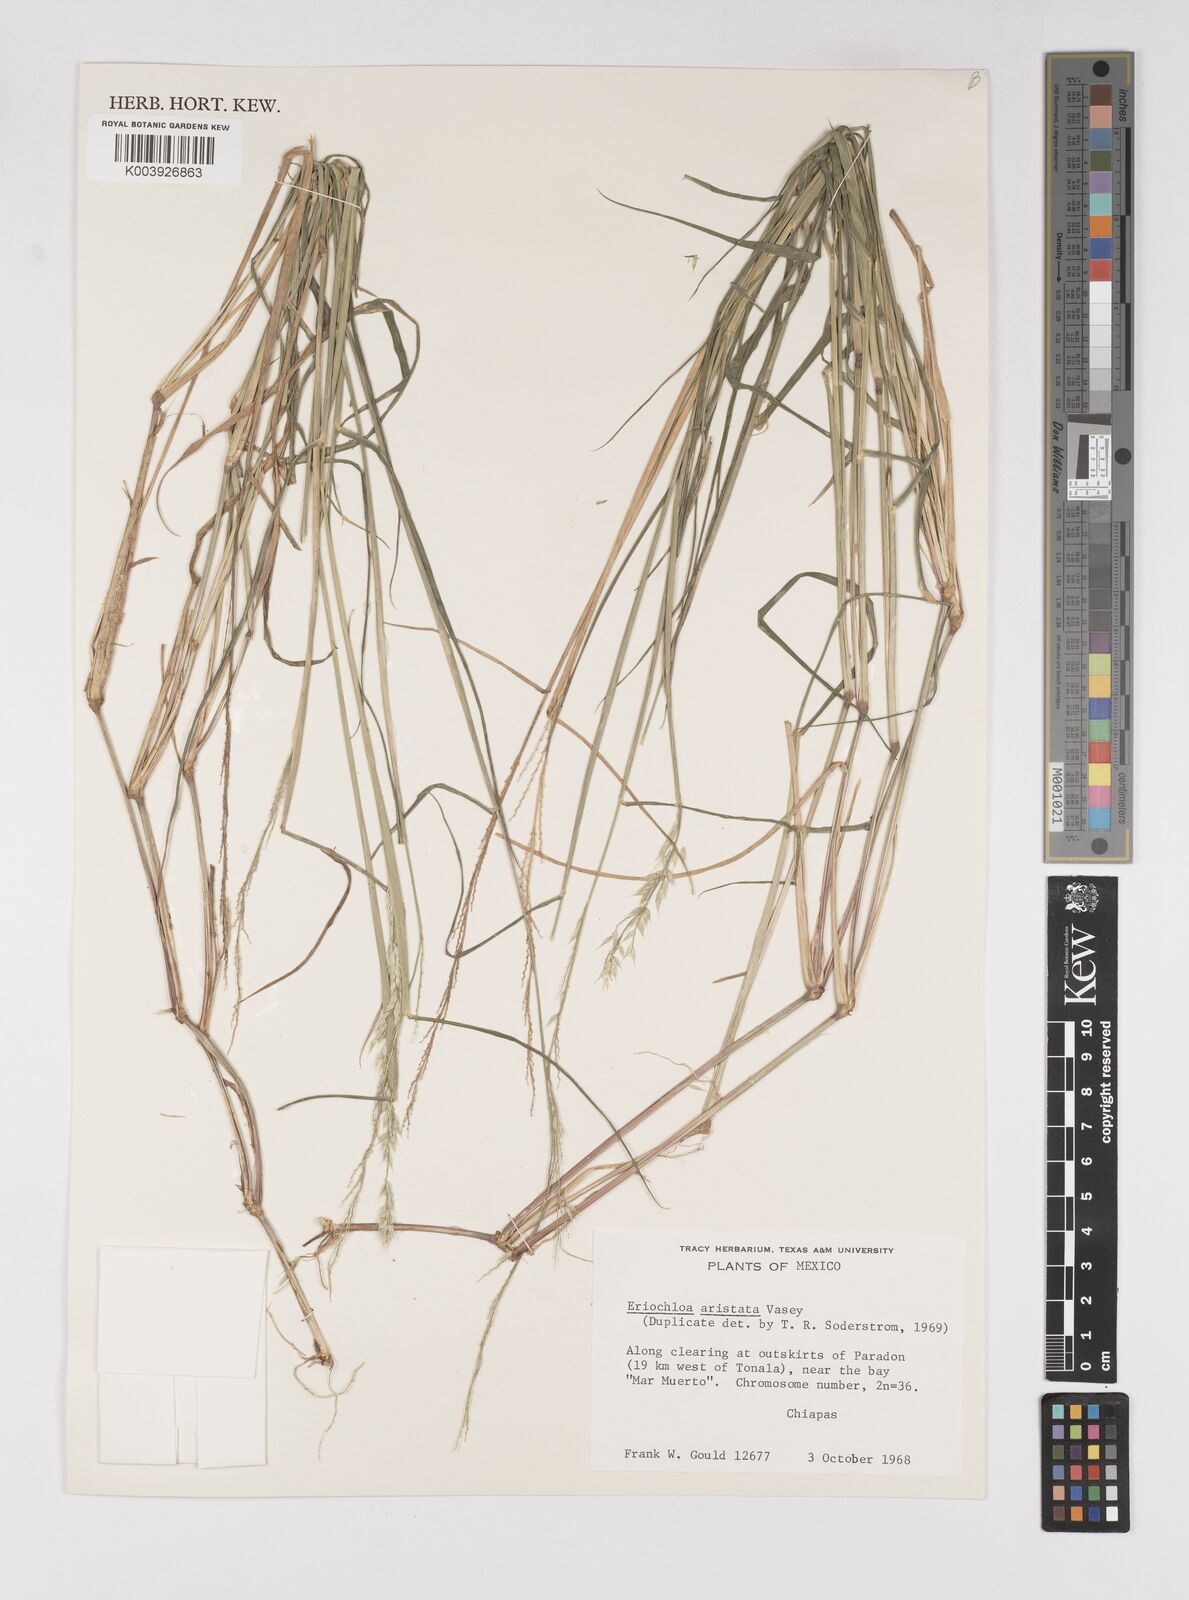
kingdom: Plantae
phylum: Tracheophyta
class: Liliopsida
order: Poales
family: Poaceae
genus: Eriochloa
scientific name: Eriochloa aristata
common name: Bearded cup grass
